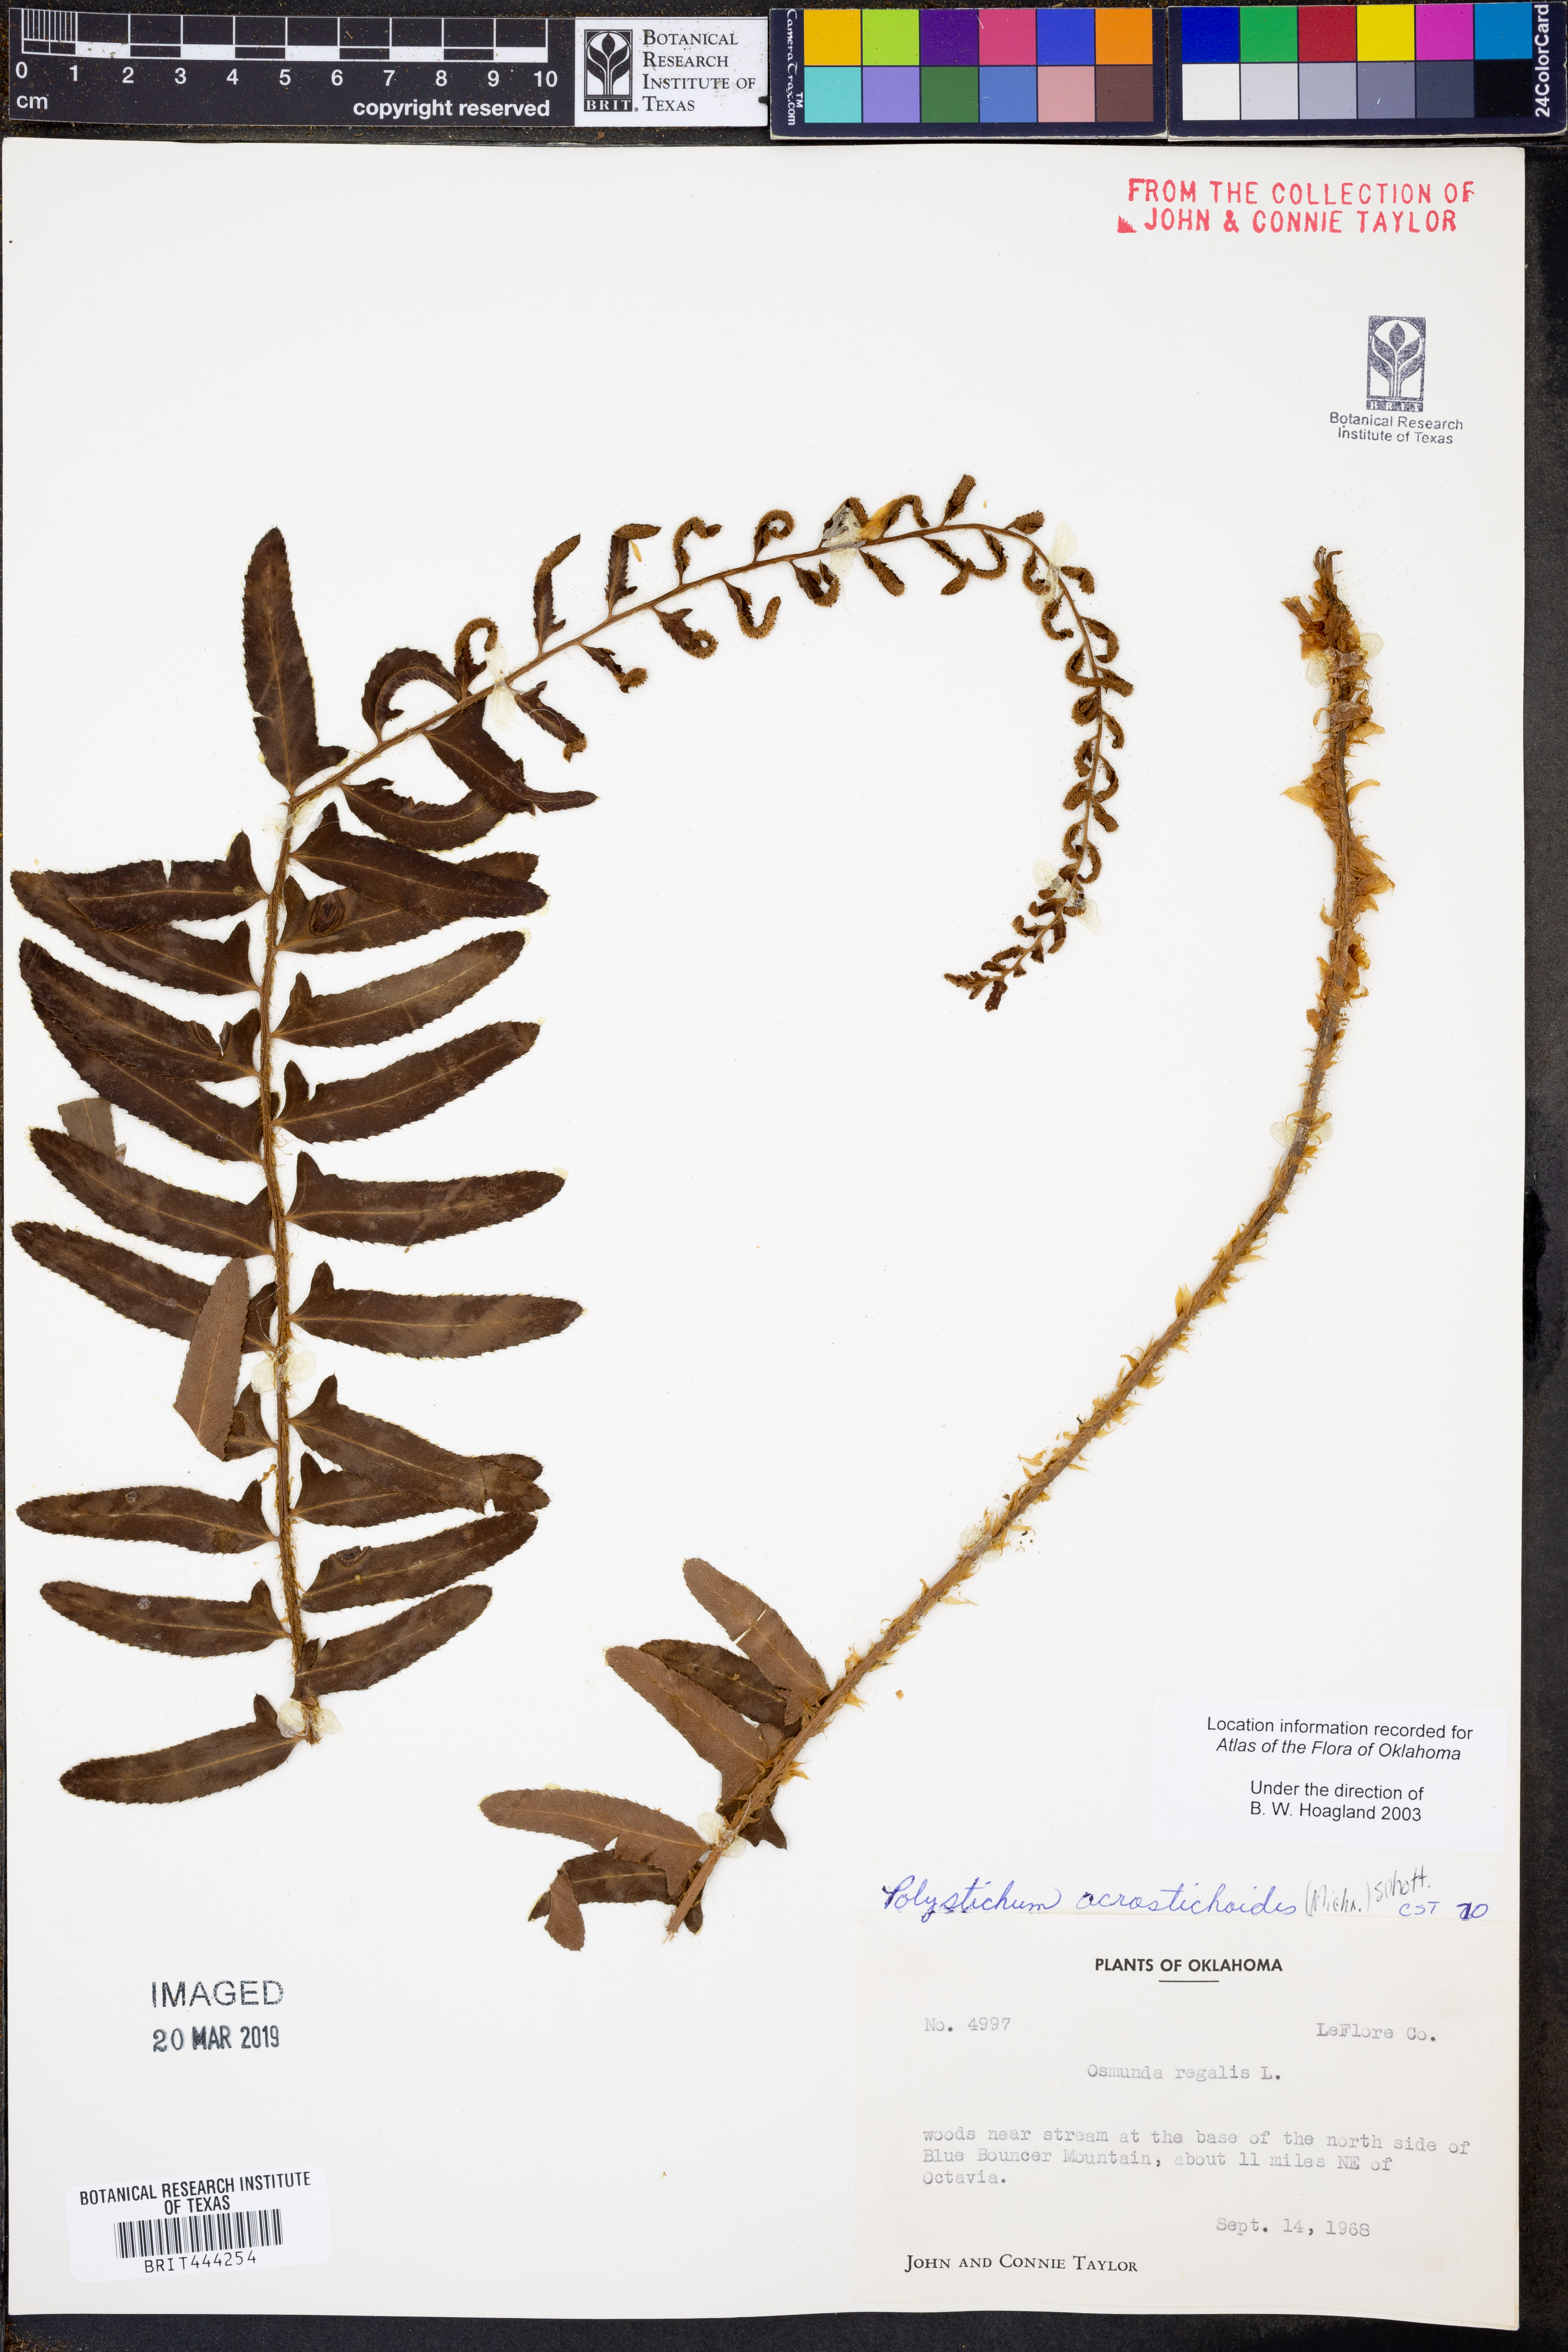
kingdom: Plantae
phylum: Tracheophyta
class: Polypodiopsida
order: Polypodiales
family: Dryopteridaceae
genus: Polystichum
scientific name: Polystichum acrostichoides
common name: Christmas fern
